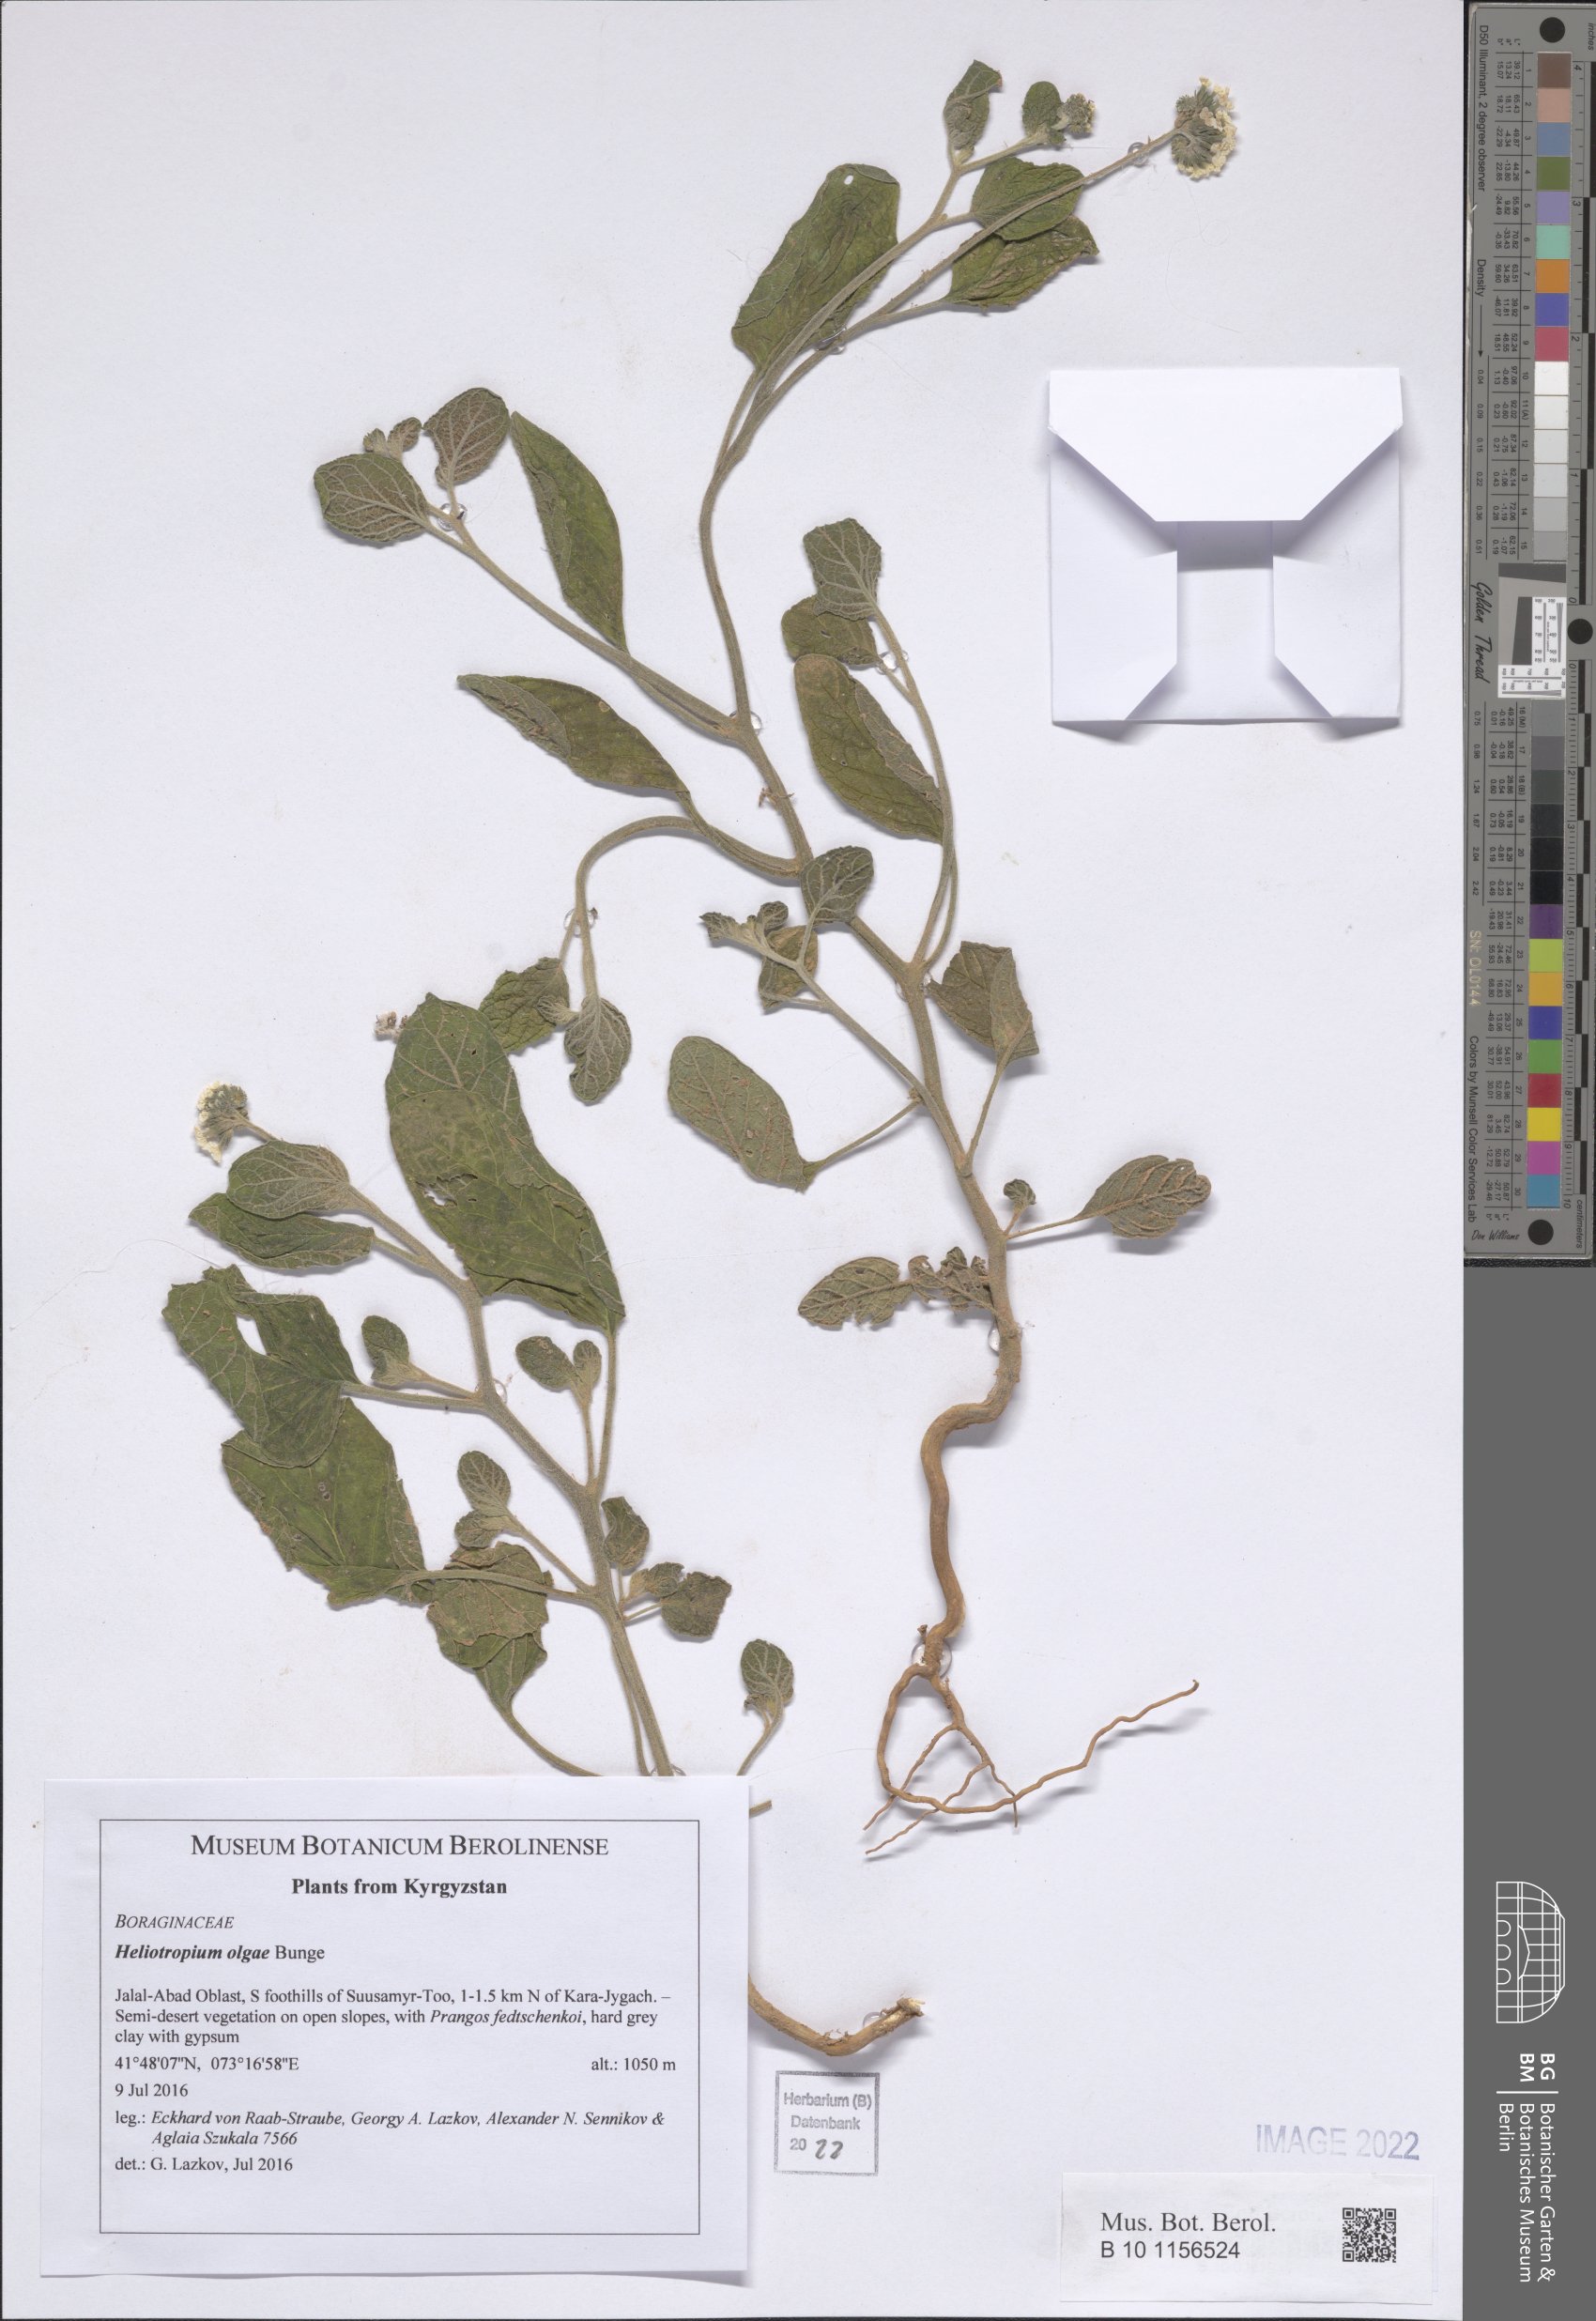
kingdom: Plantae
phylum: Tracheophyta
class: Magnoliopsida
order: Boraginales
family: Heliotropiaceae
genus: Heliotropium
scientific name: Heliotropium olgae
